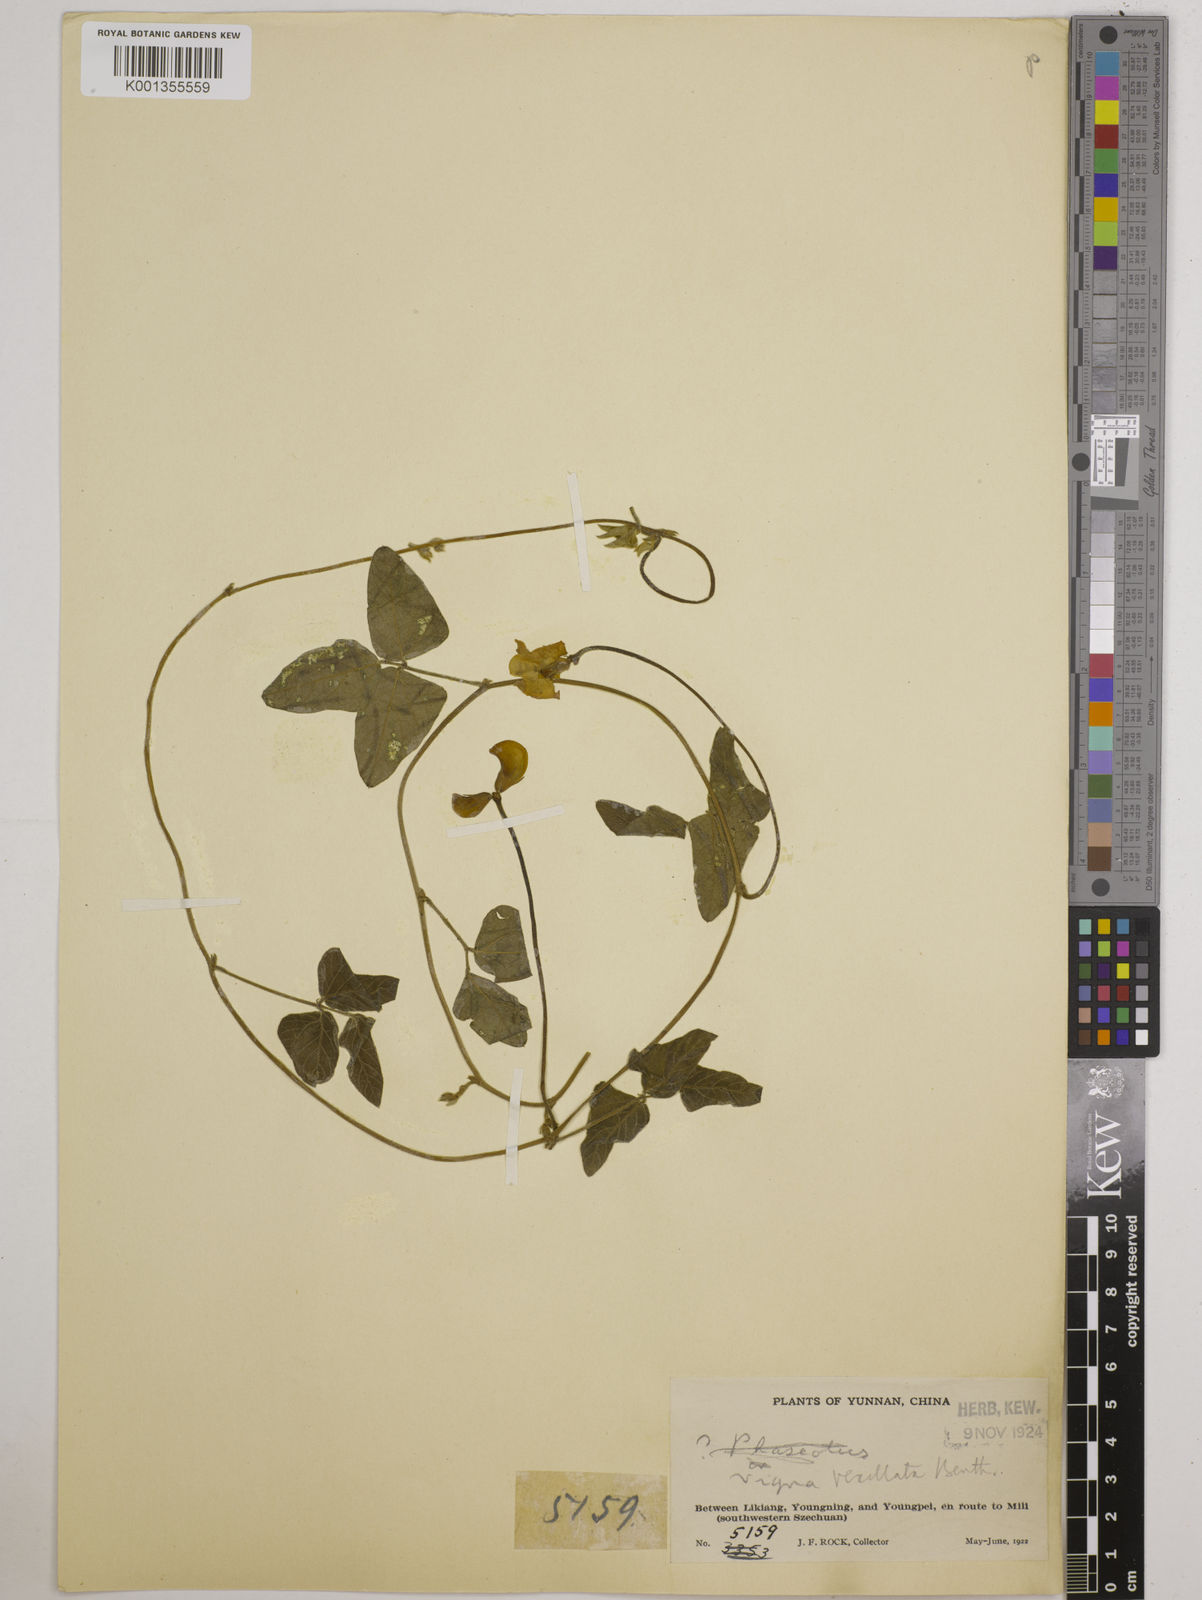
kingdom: Plantae
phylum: Tracheophyta
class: Magnoliopsida
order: Fabales
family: Fabaceae
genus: Vigna
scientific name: Vigna vexillata
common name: Zombi pea
